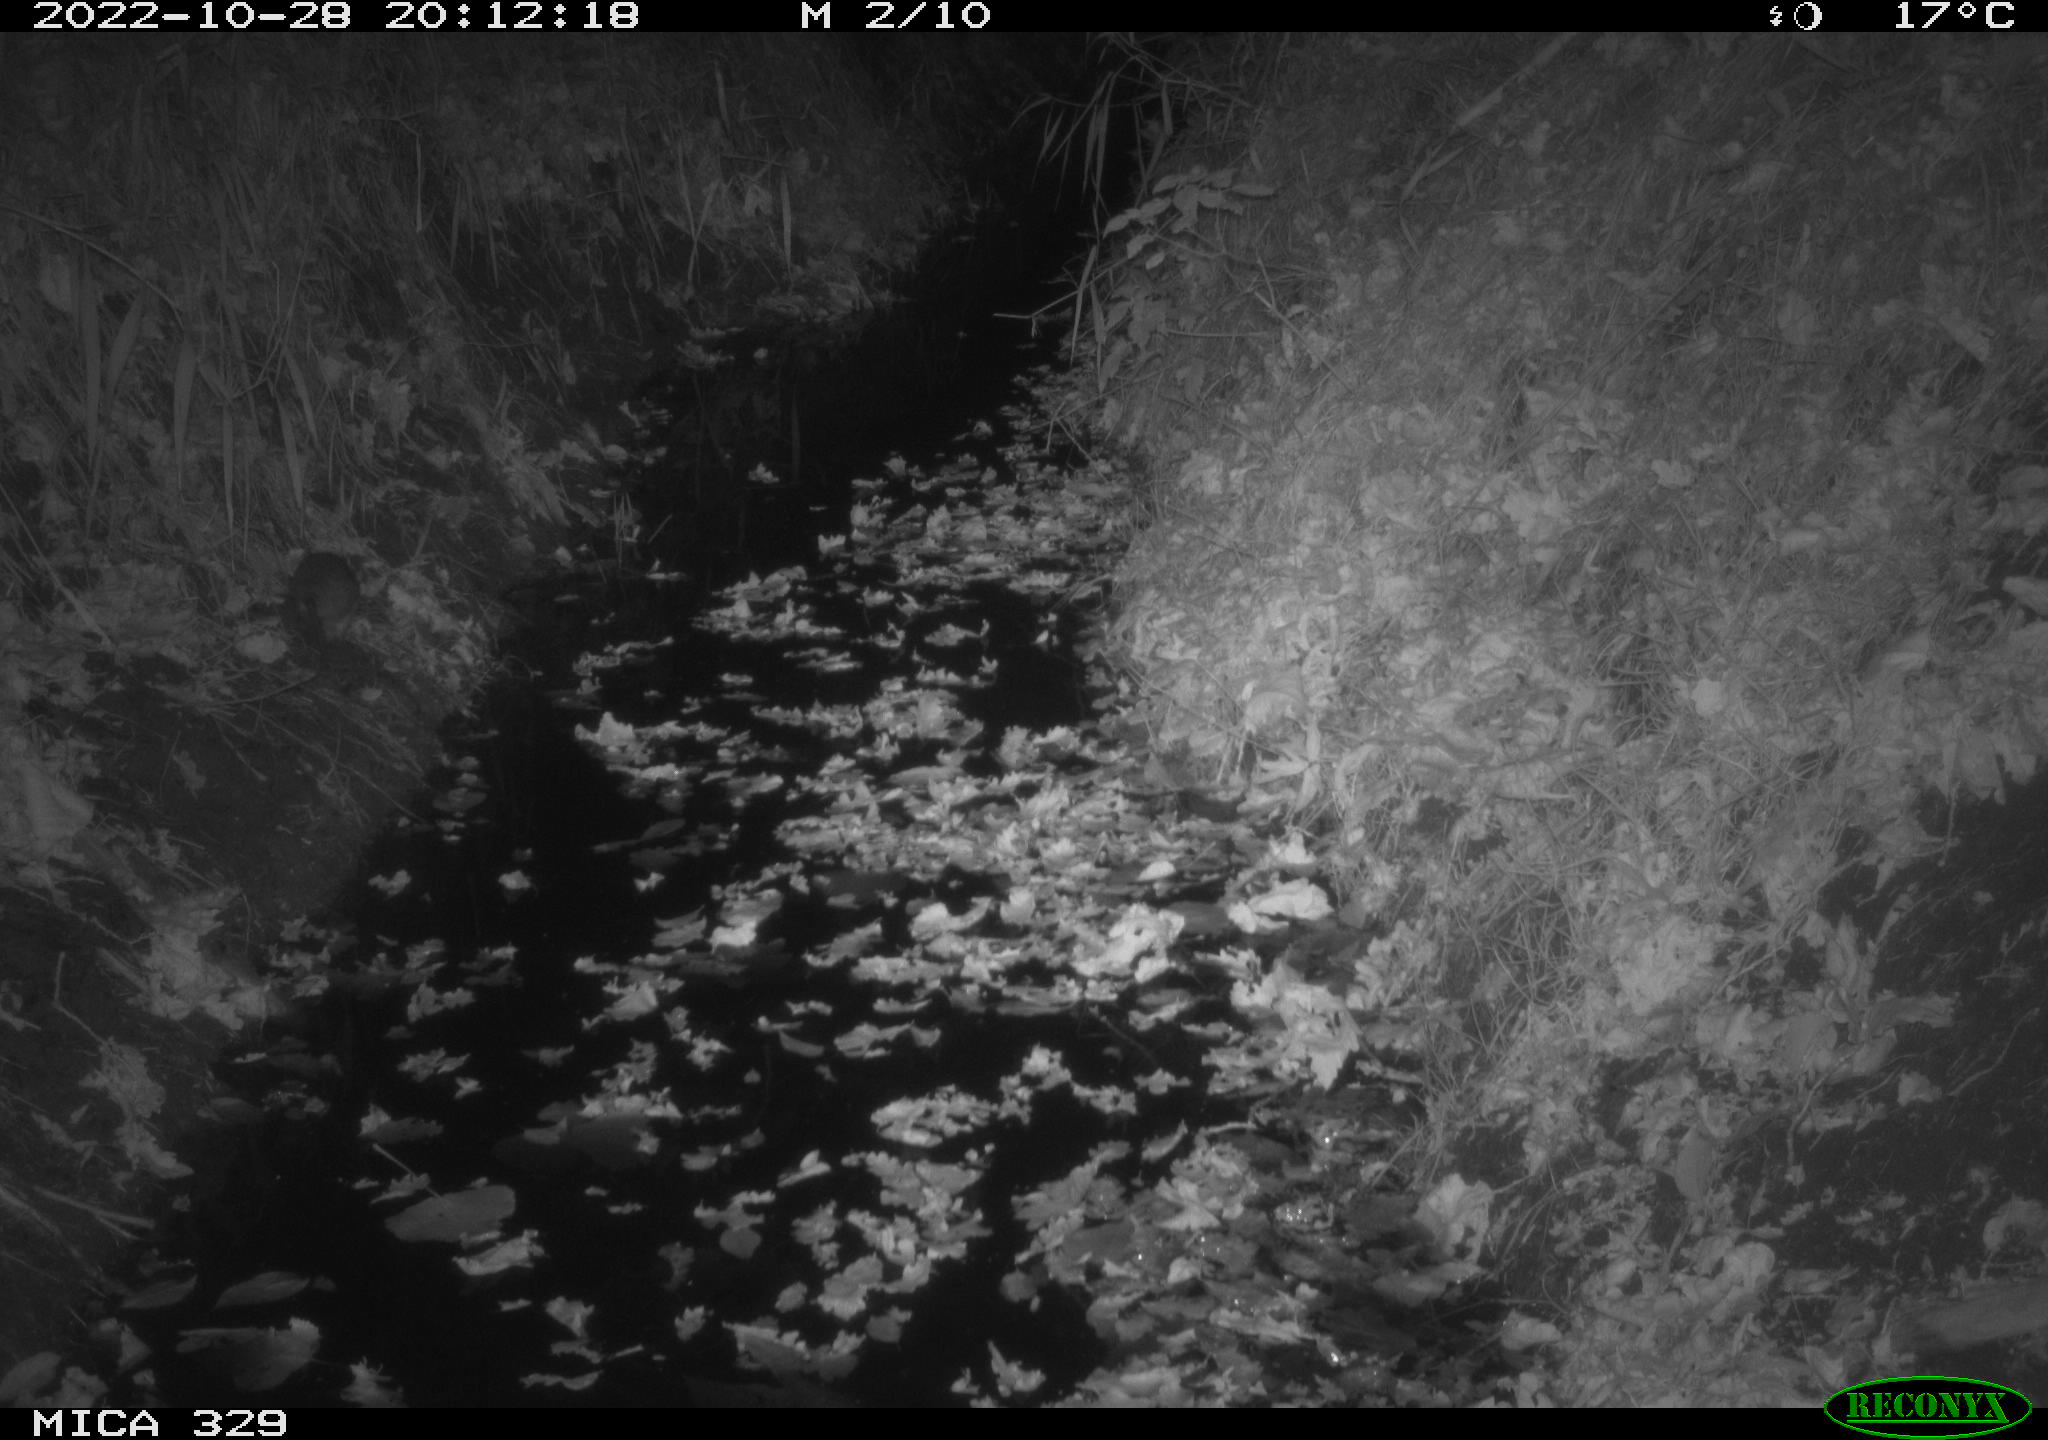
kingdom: Animalia
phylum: Chordata
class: Mammalia
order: Rodentia
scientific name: Rodentia
